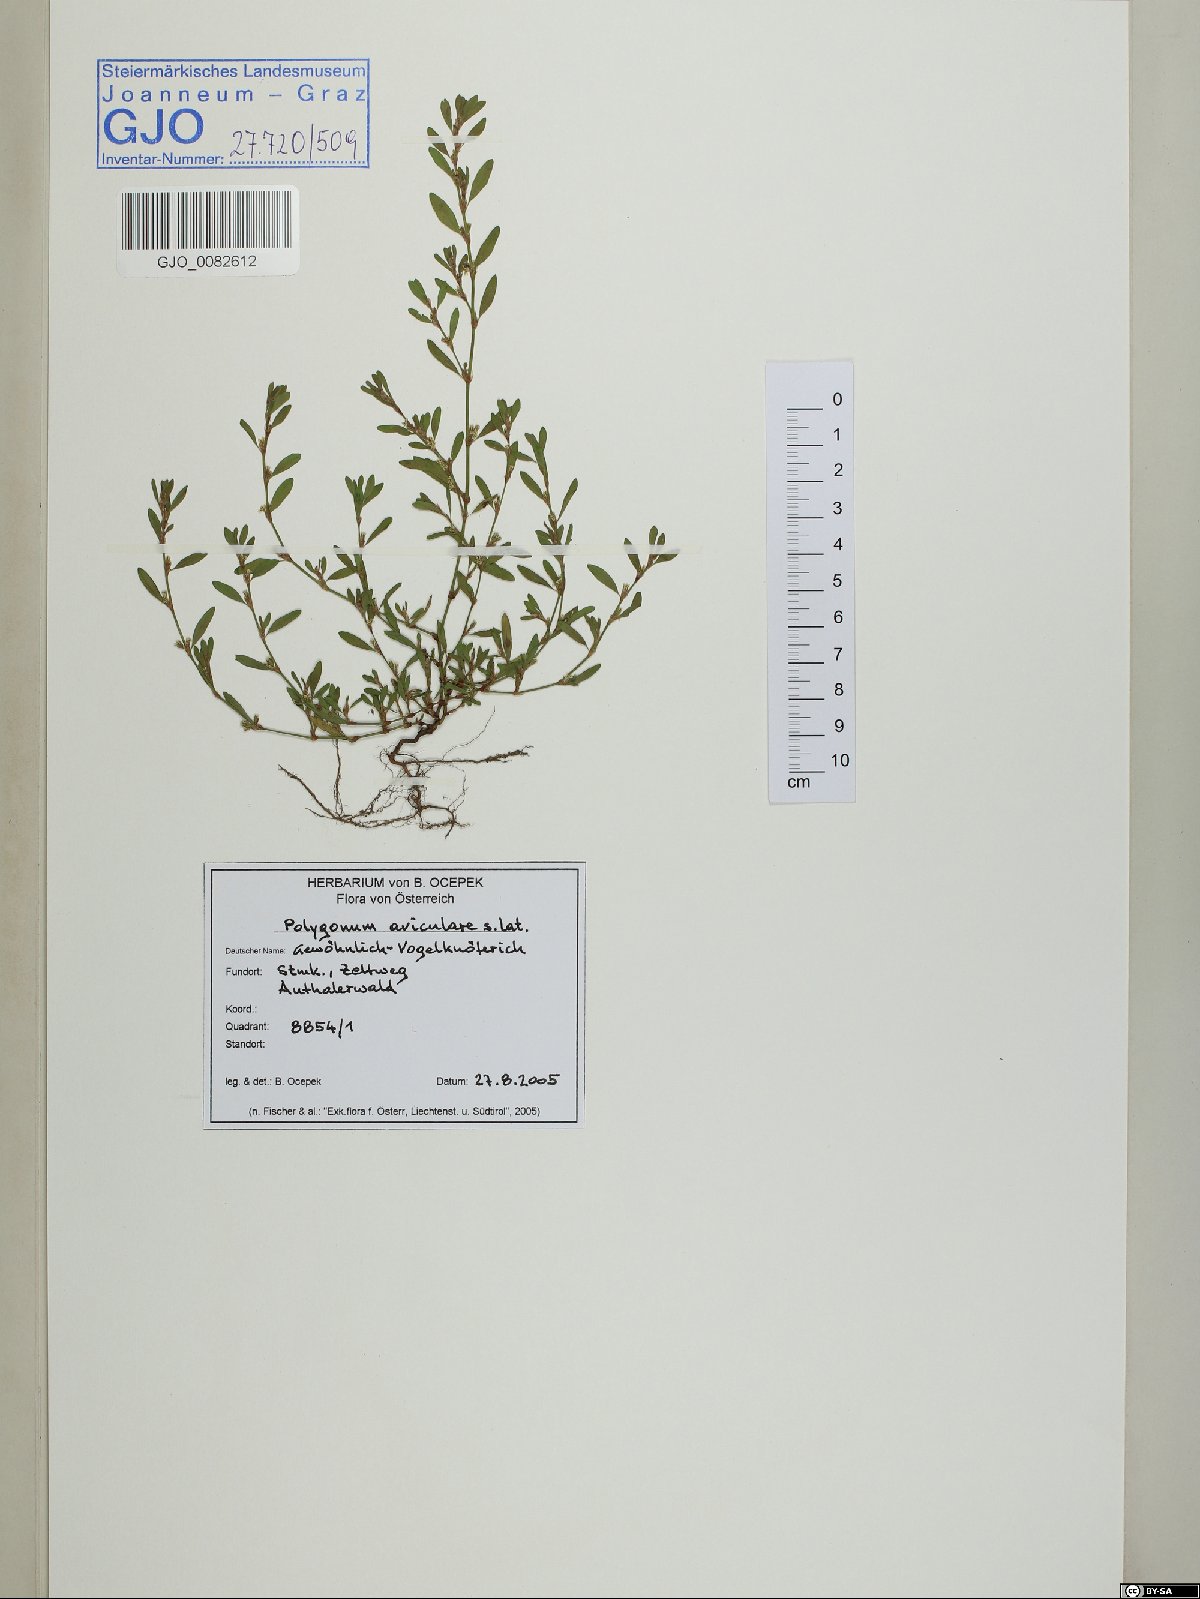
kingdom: Plantae
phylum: Tracheophyta
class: Magnoliopsida
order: Caryophyllales
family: Polygonaceae
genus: Polygonum
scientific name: Polygonum aviculare
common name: Prostrate knotweed
